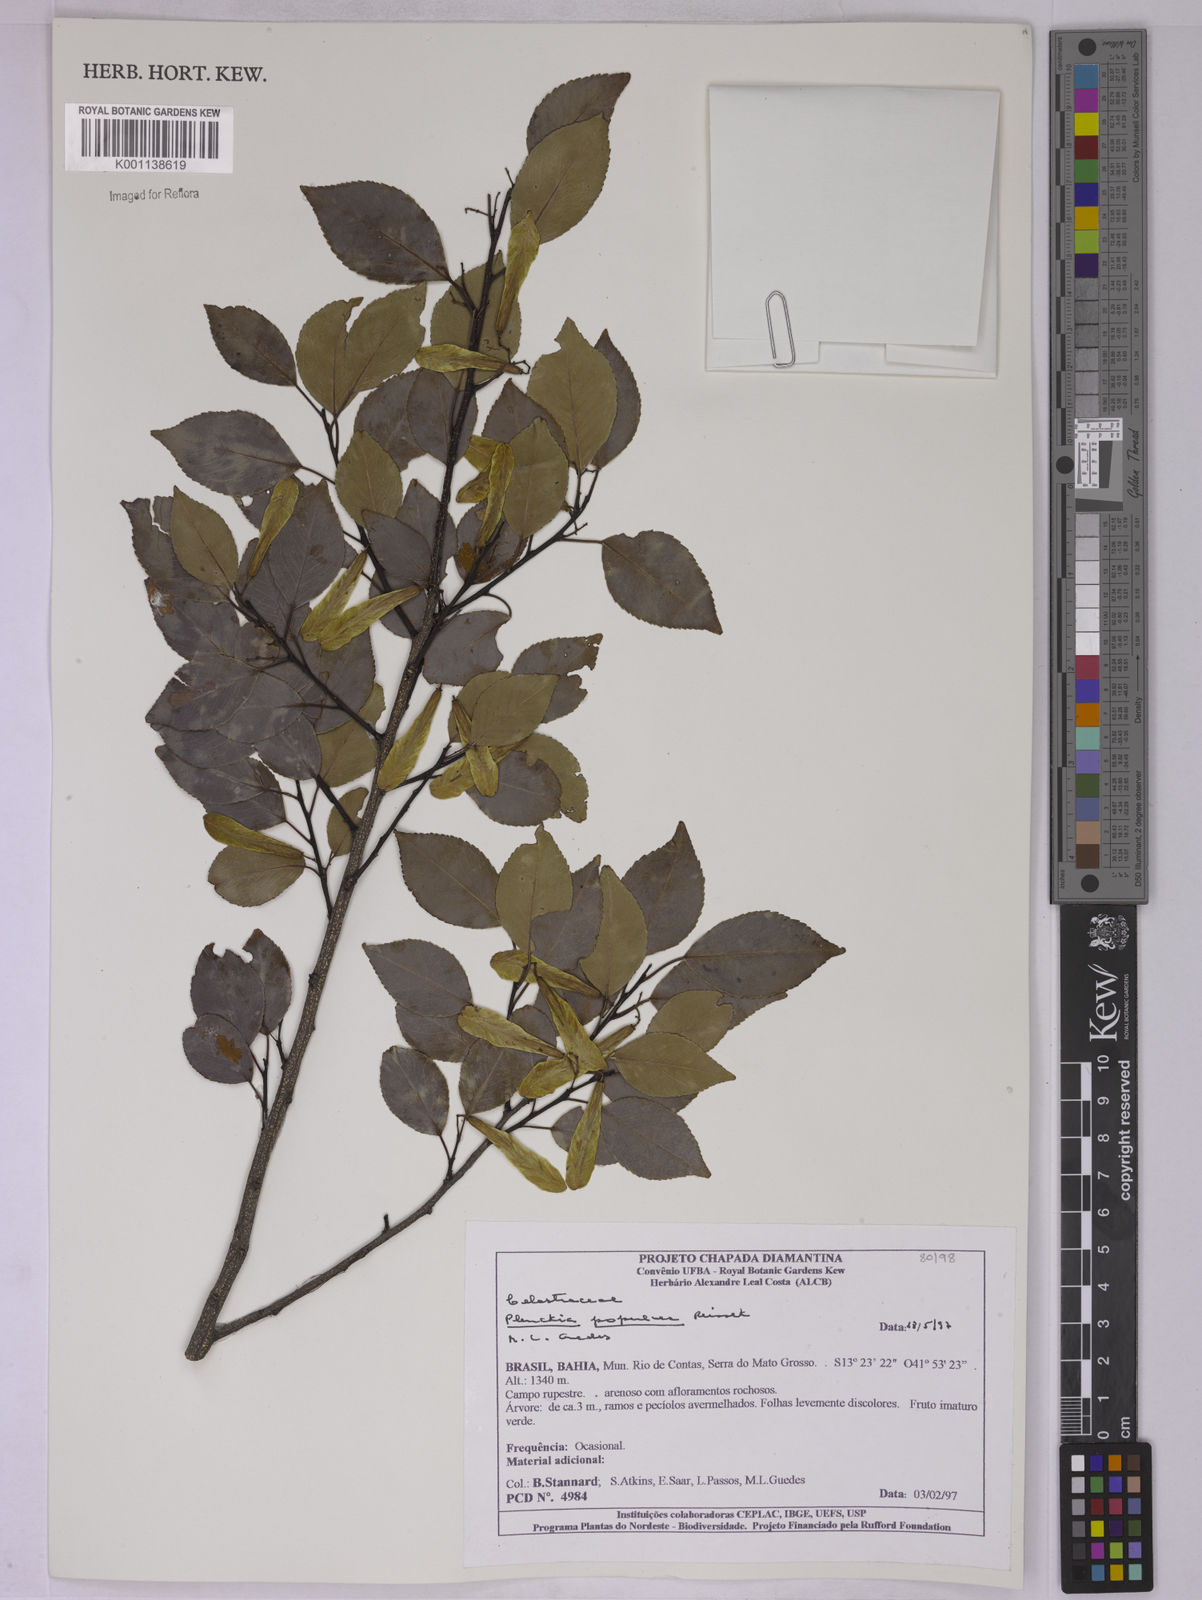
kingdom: Plantae
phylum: Tracheophyta
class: Magnoliopsida
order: Celastrales
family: Celastraceae
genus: Plenckia
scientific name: Plenckia populnea
